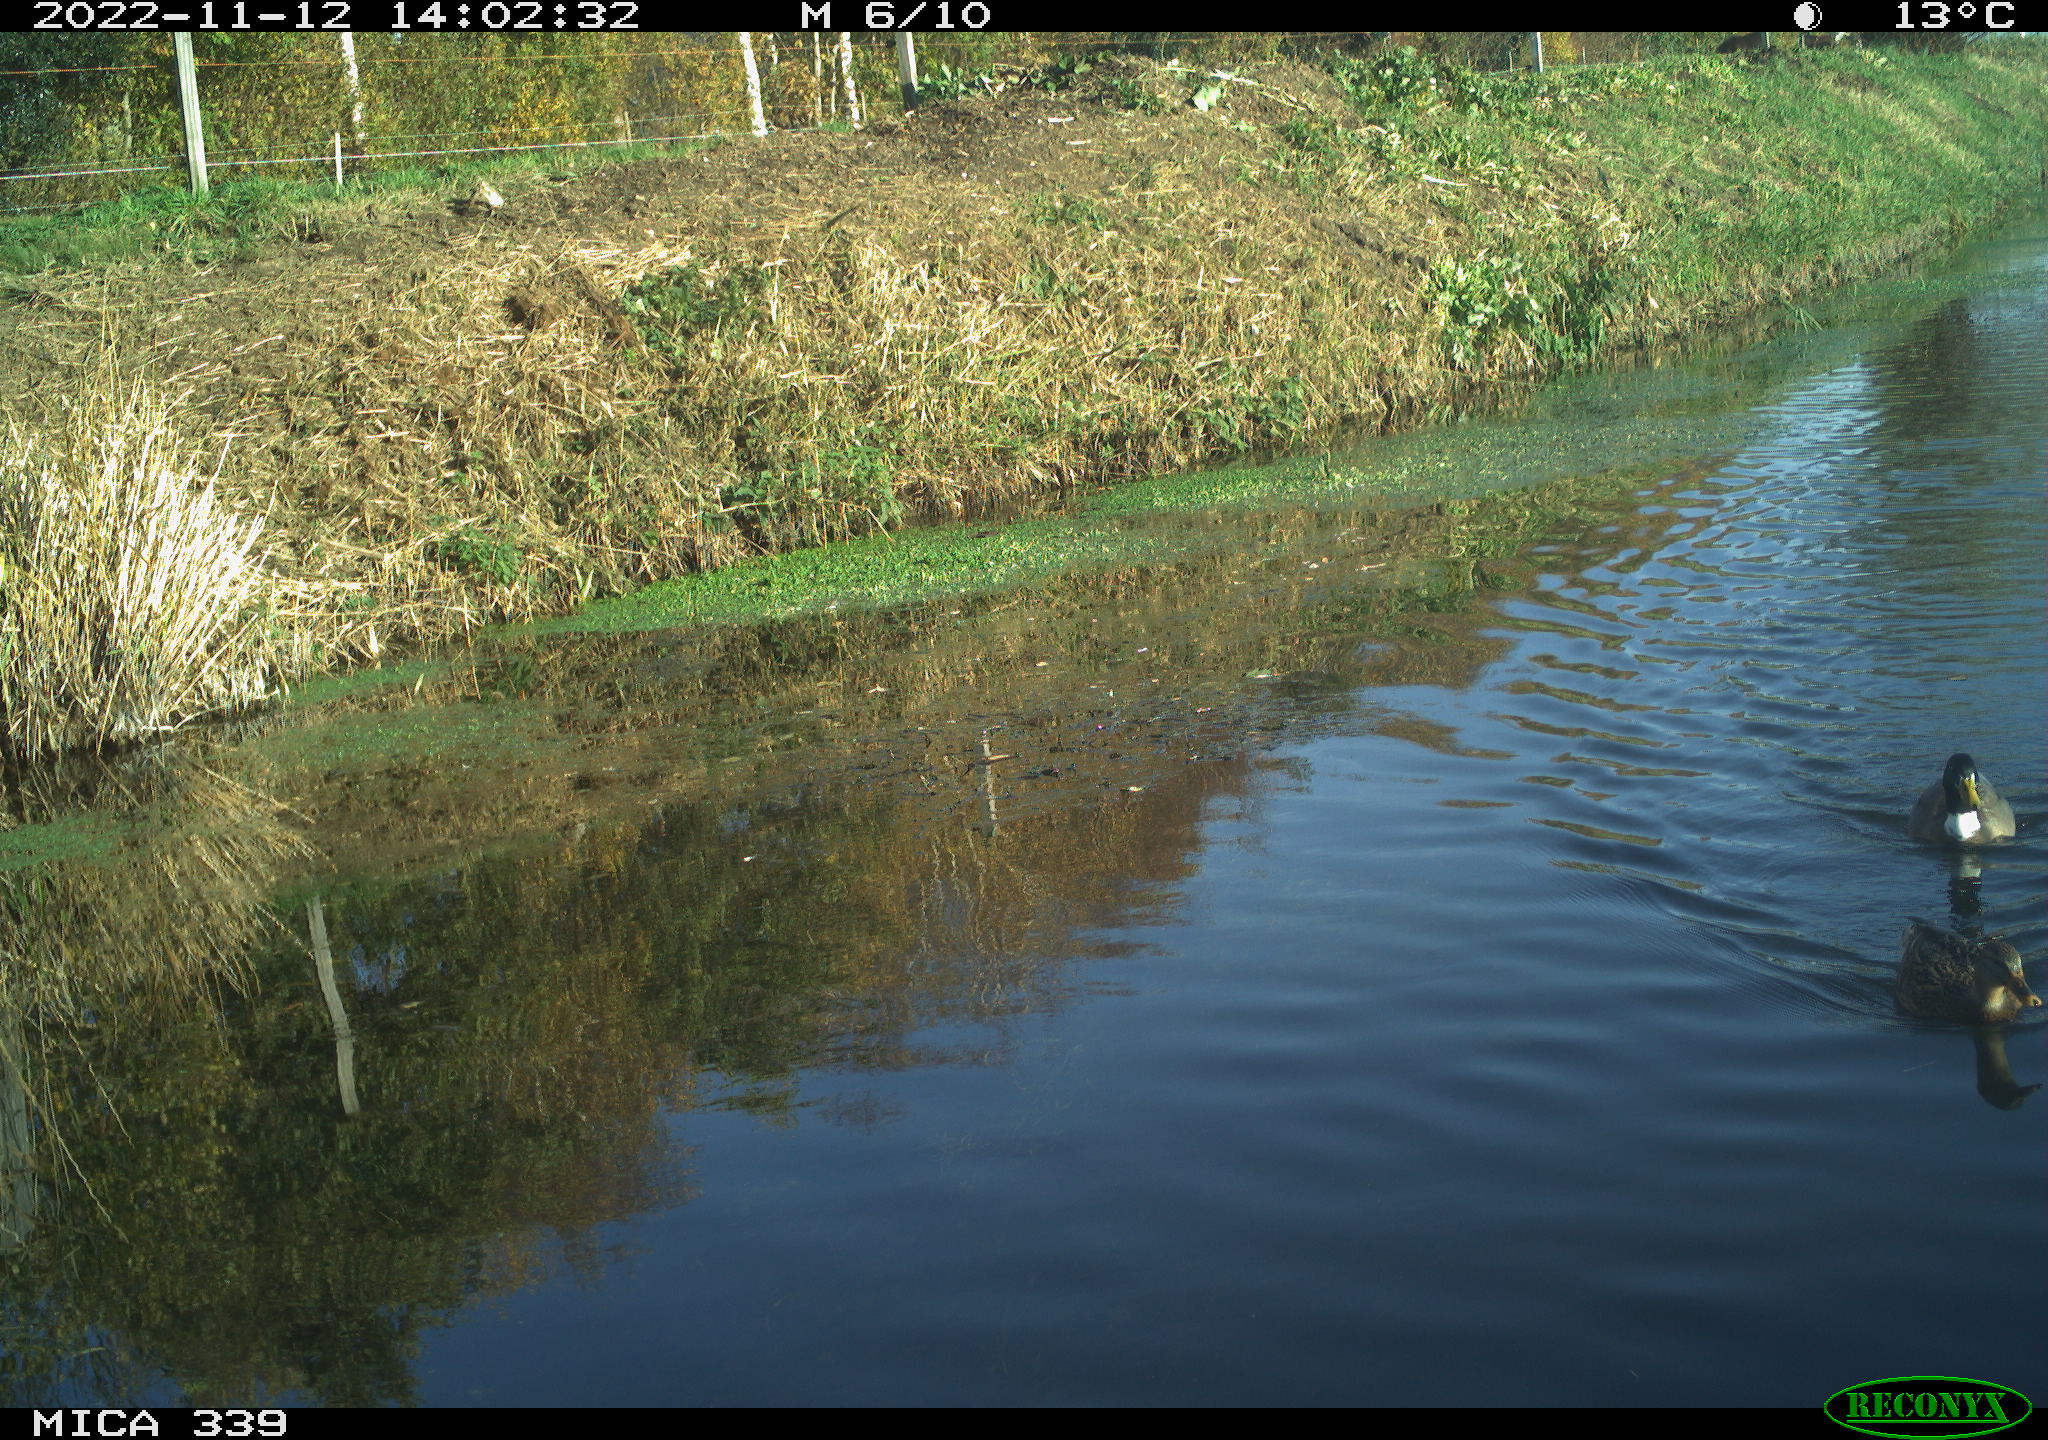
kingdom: Animalia
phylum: Chordata
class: Aves
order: Anseriformes
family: Anatidae
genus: Anas
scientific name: Anas platyrhynchos
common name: Mallard
